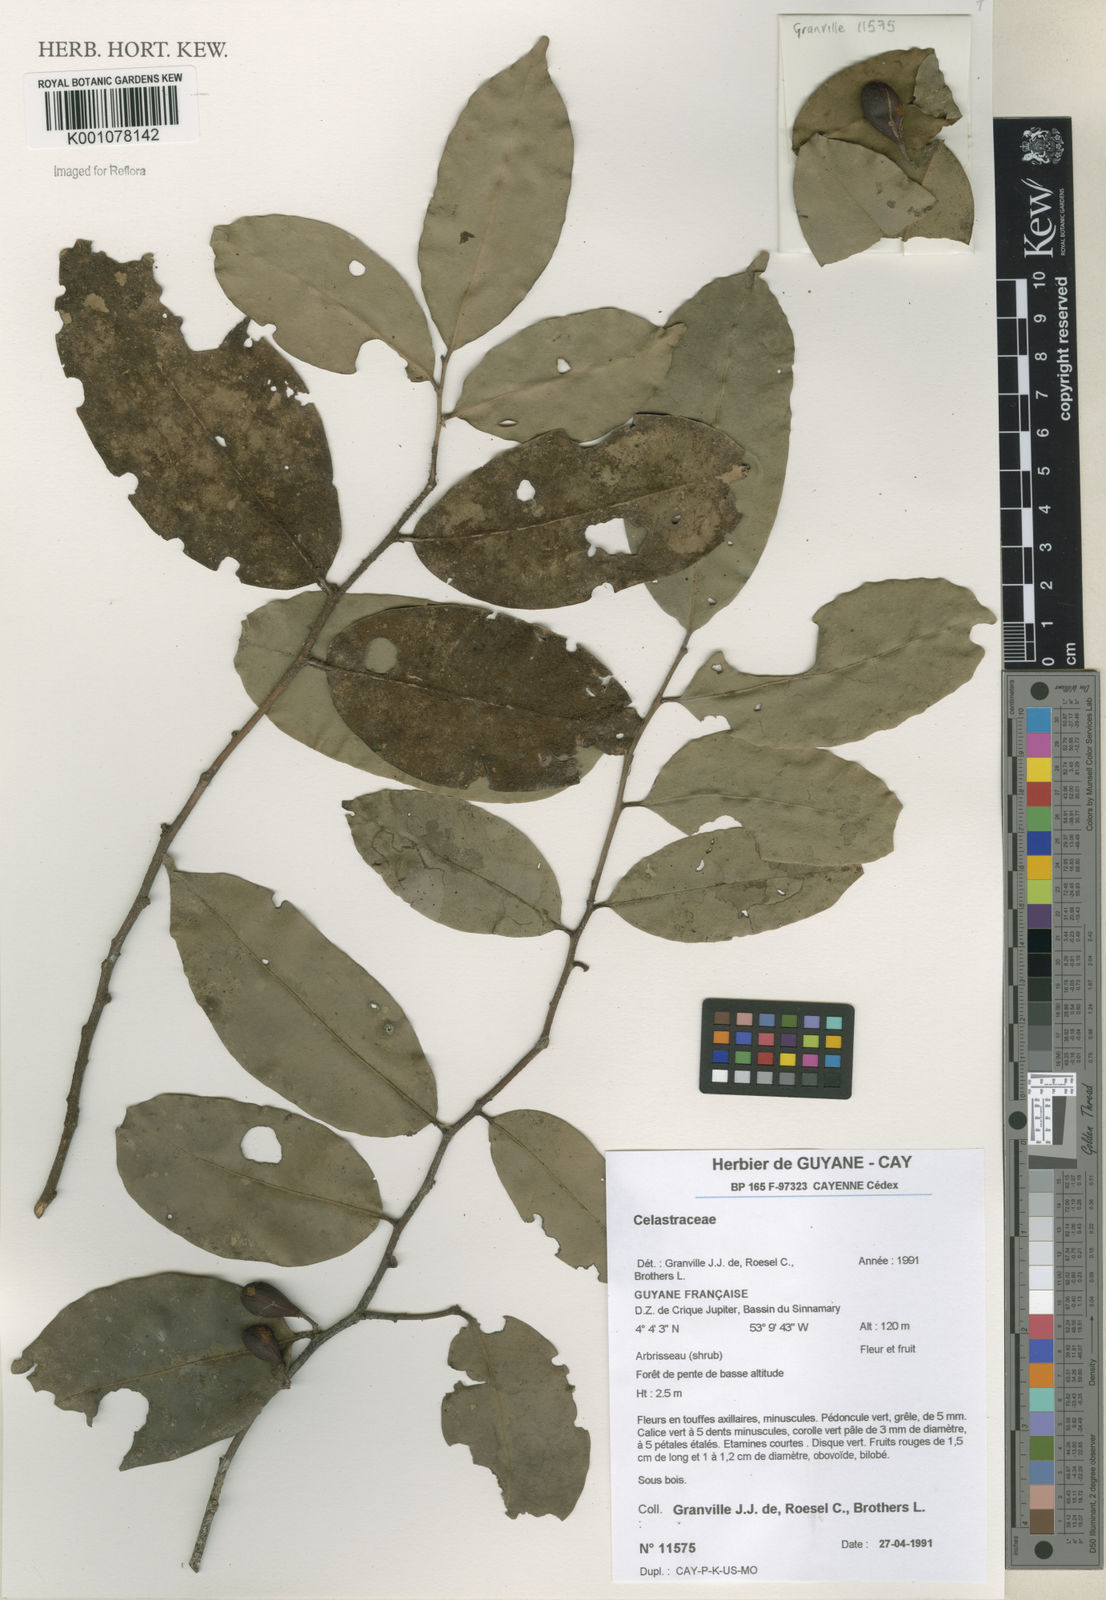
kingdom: Plantae
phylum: Tracheophyta
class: Magnoliopsida
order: Celastrales
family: Celastraceae
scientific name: Celastraceae
